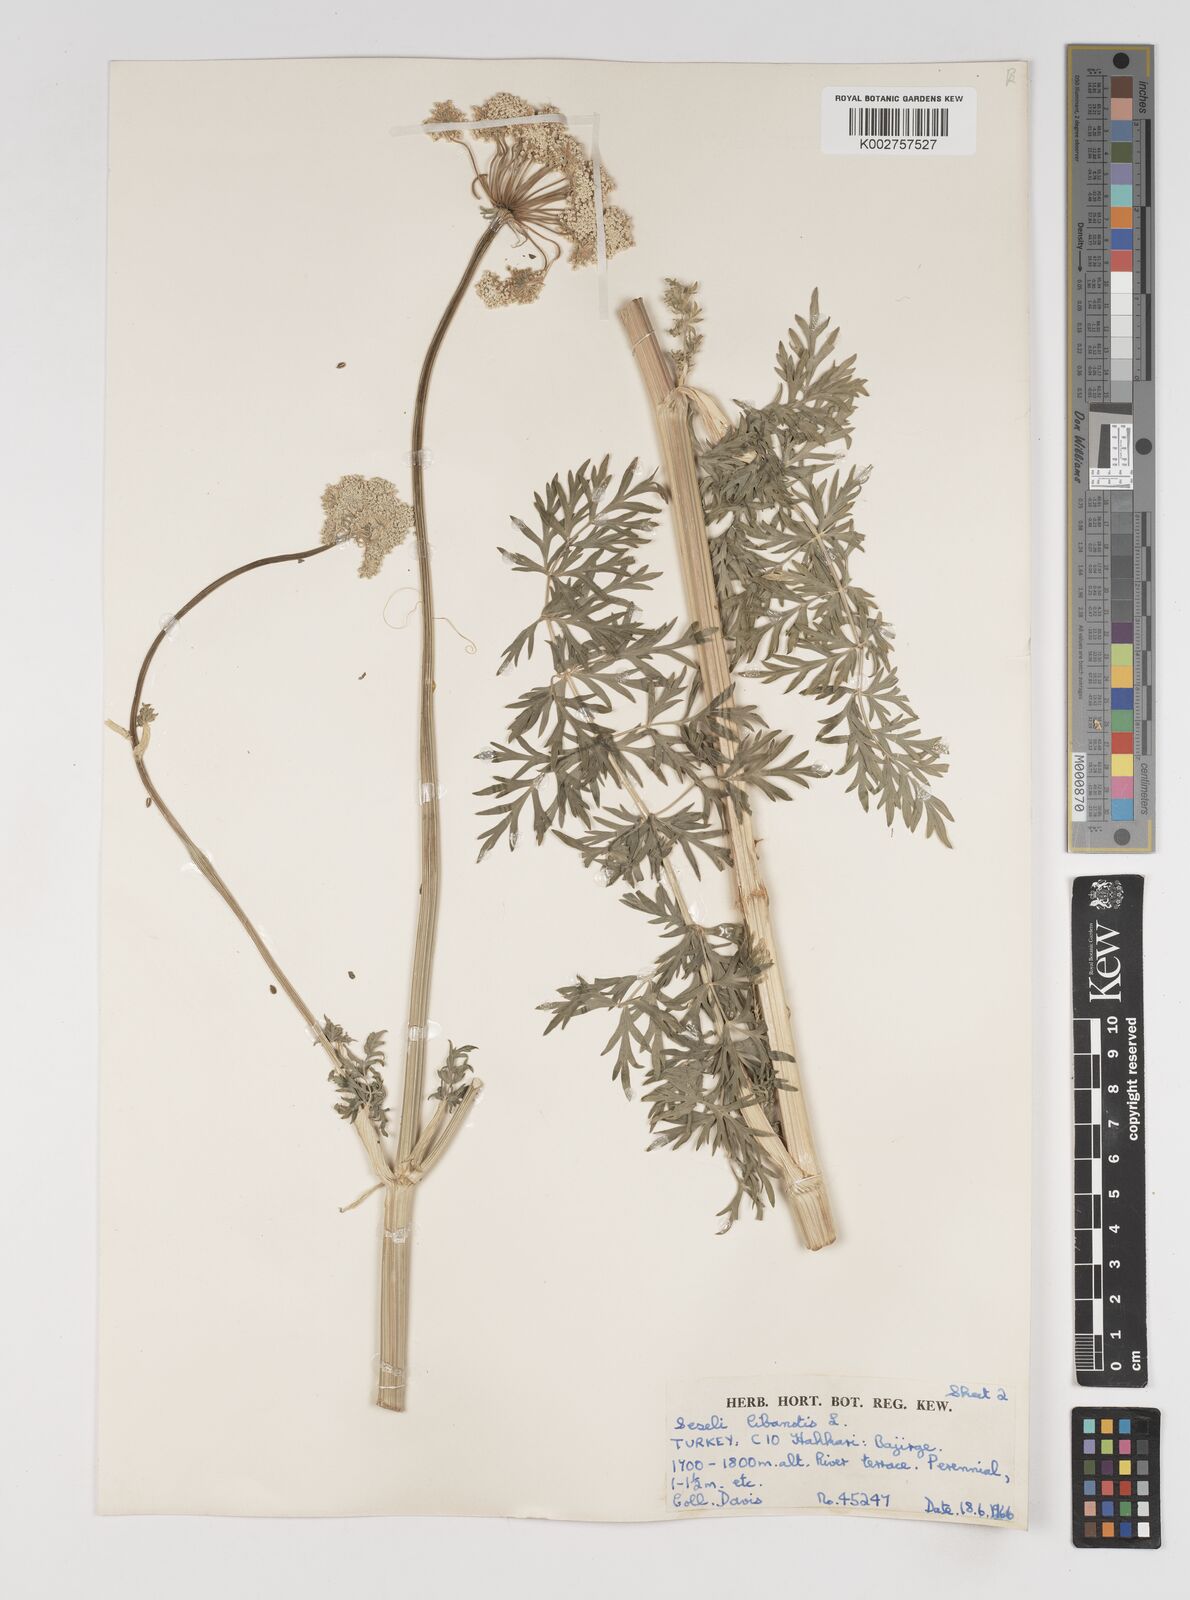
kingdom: Plantae
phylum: Tracheophyta
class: Magnoliopsida
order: Apiales
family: Apiaceae
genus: Seseli
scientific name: Seseli libanotis
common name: Mooncarrot
